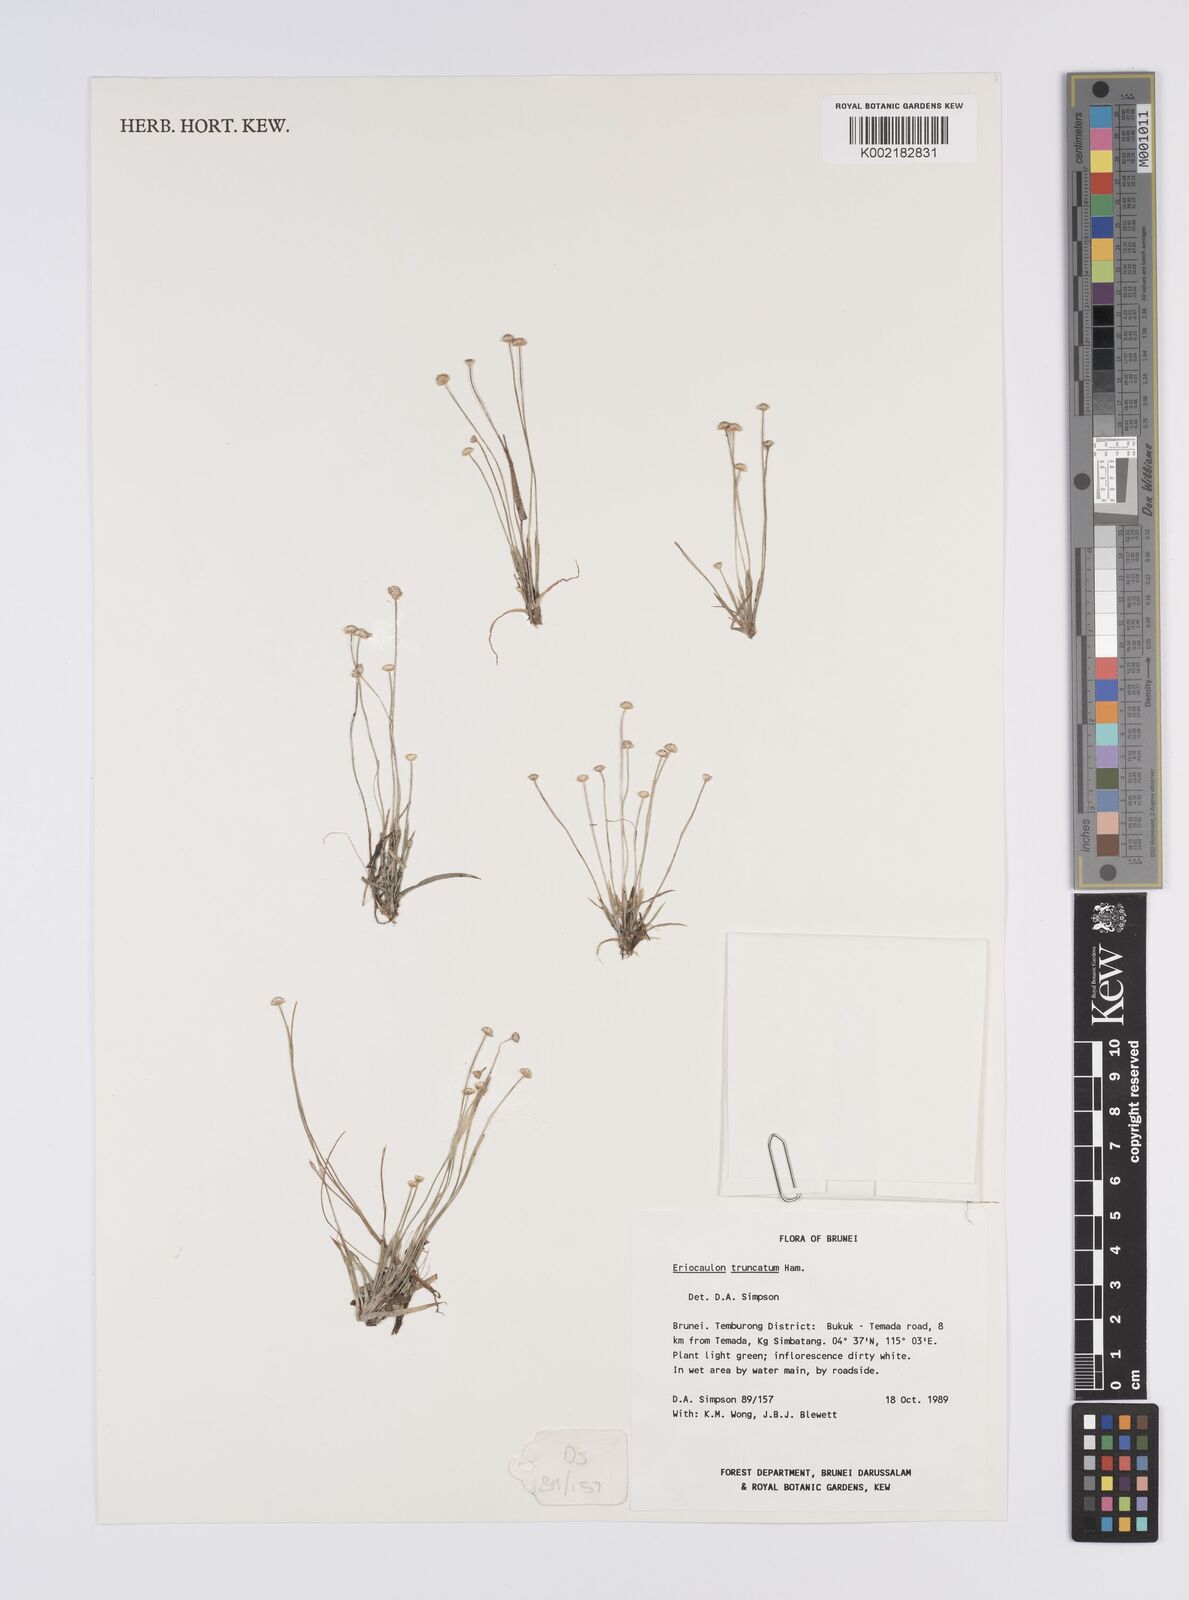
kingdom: Plantae
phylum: Tracheophyta
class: Liliopsida
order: Poales
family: Eriocaulaceae
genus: Eriocaulon
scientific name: Eriocaulon truncatum
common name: Short pipe-wort
